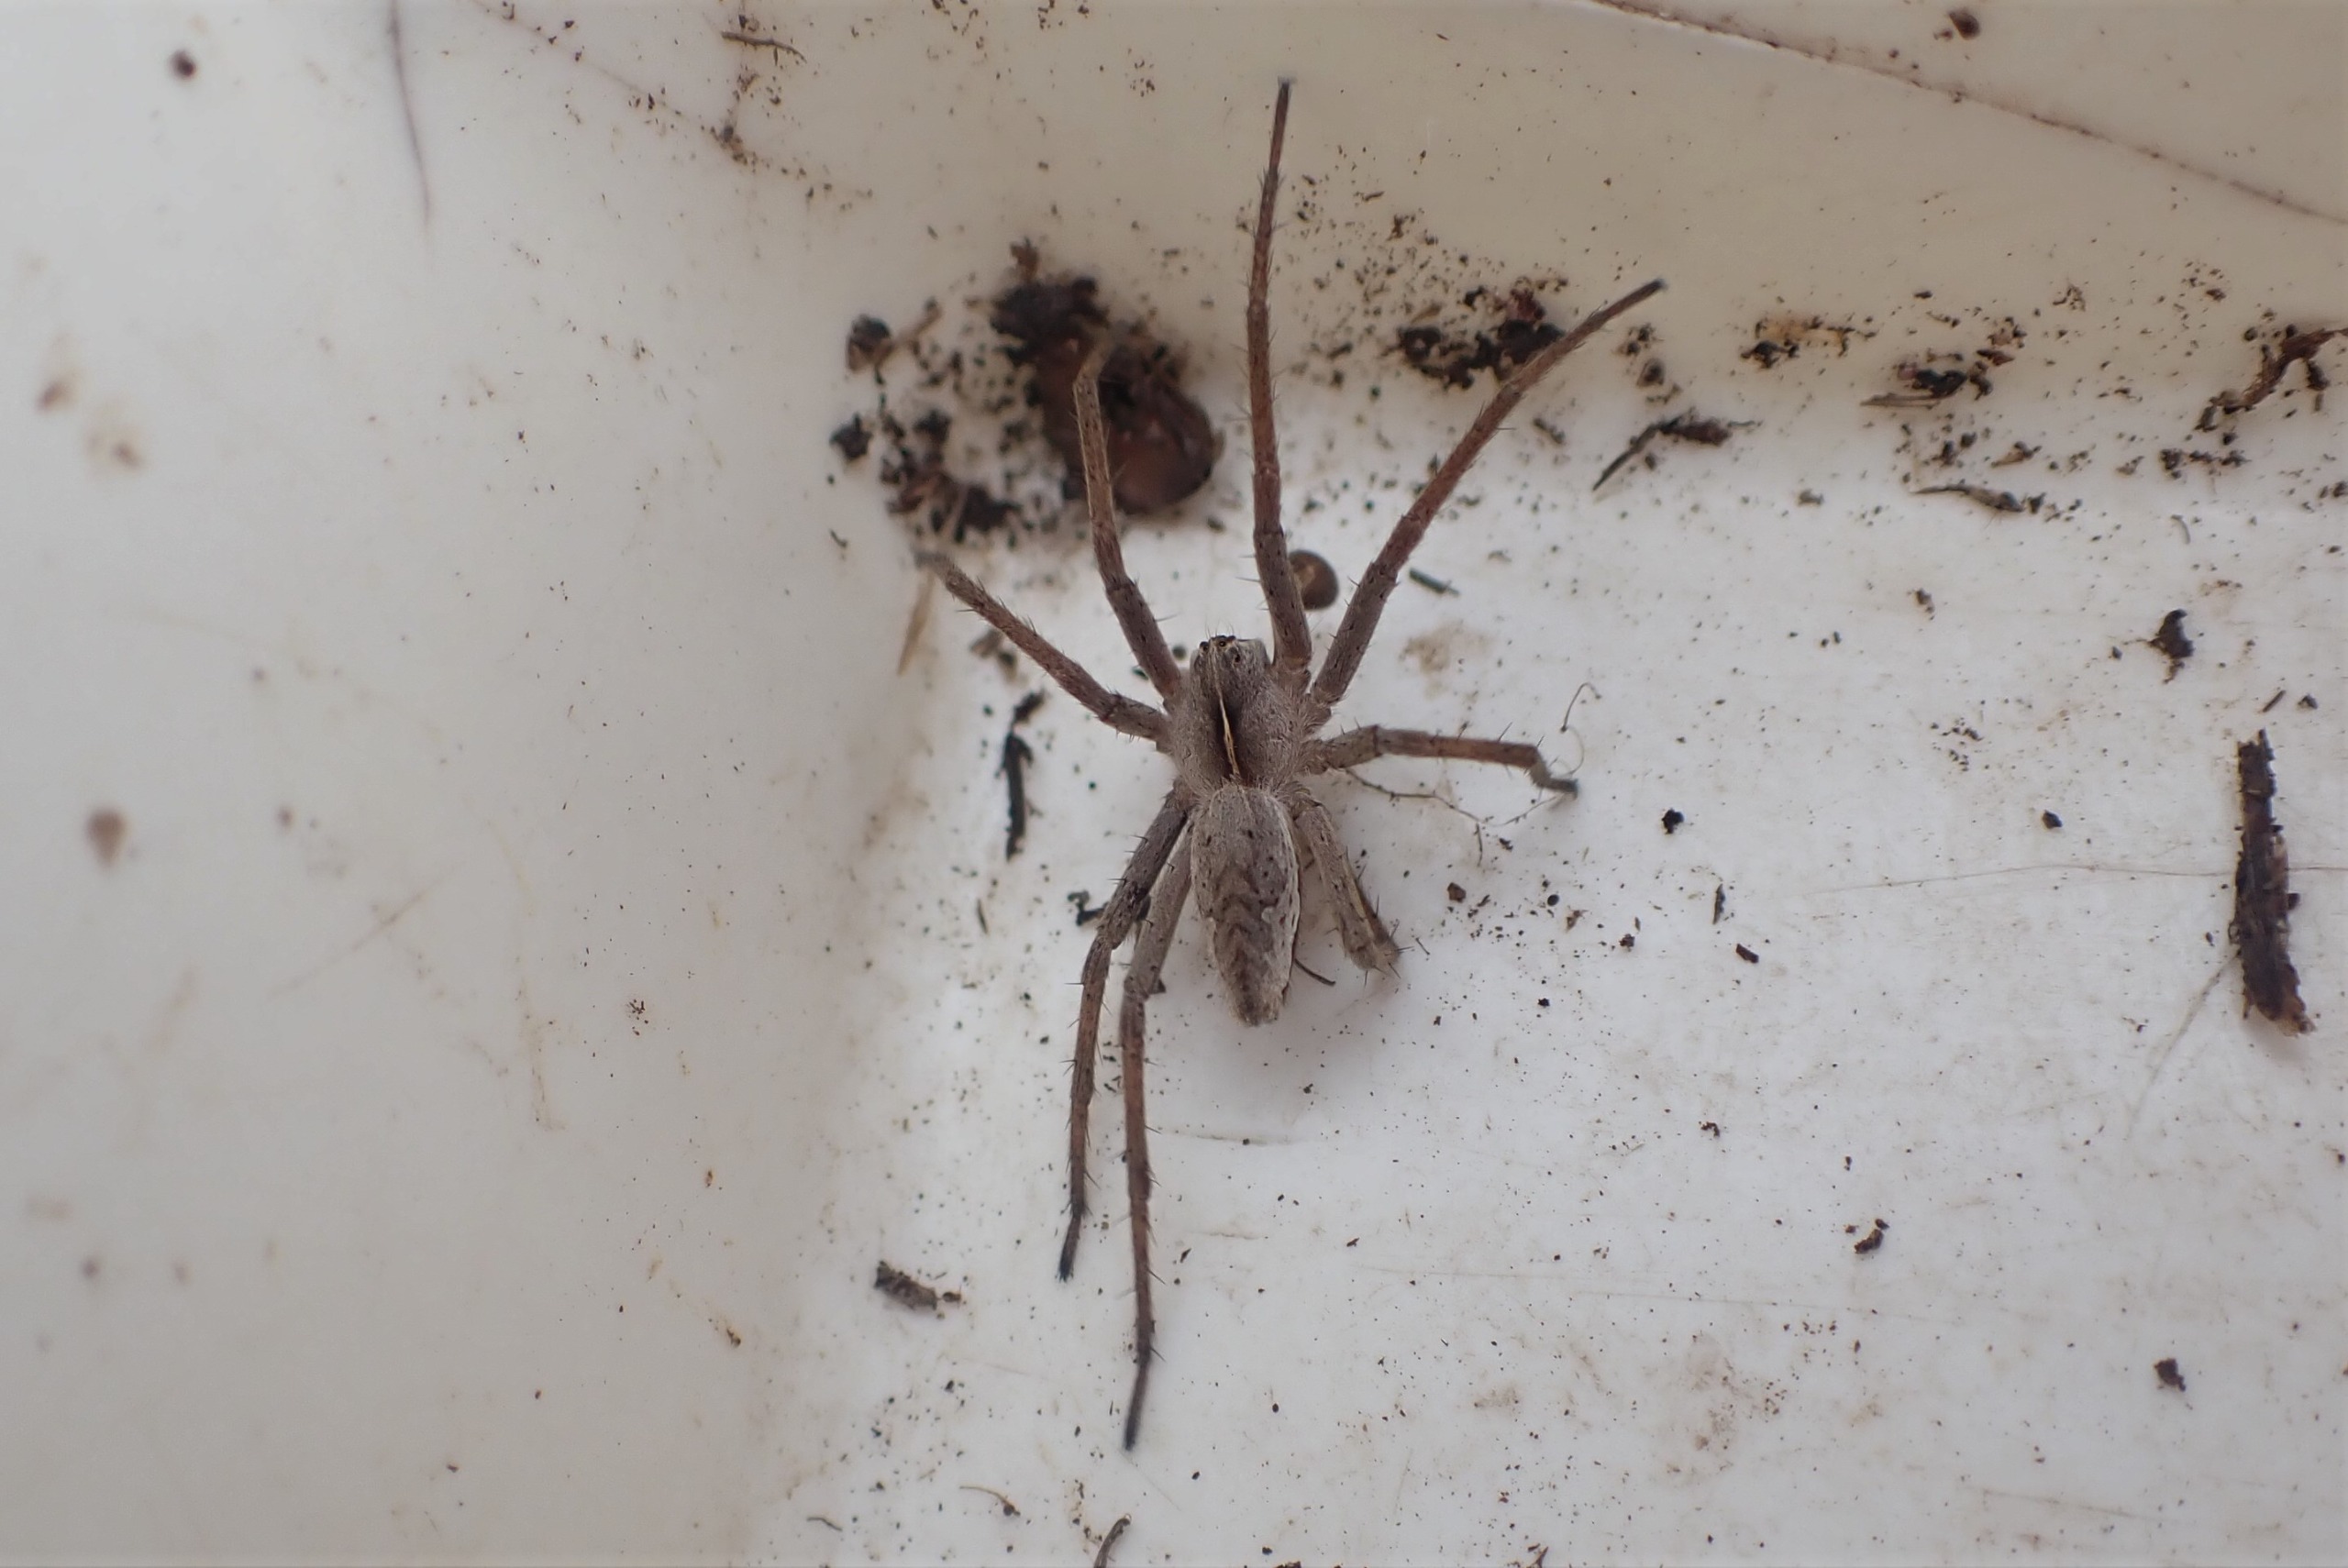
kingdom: Animalia
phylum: Arthropoda
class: Arachnida
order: Araneae
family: Pisauridae
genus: Pisaura
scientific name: Pisaura mirabilis
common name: Almindelig rovedderkop
